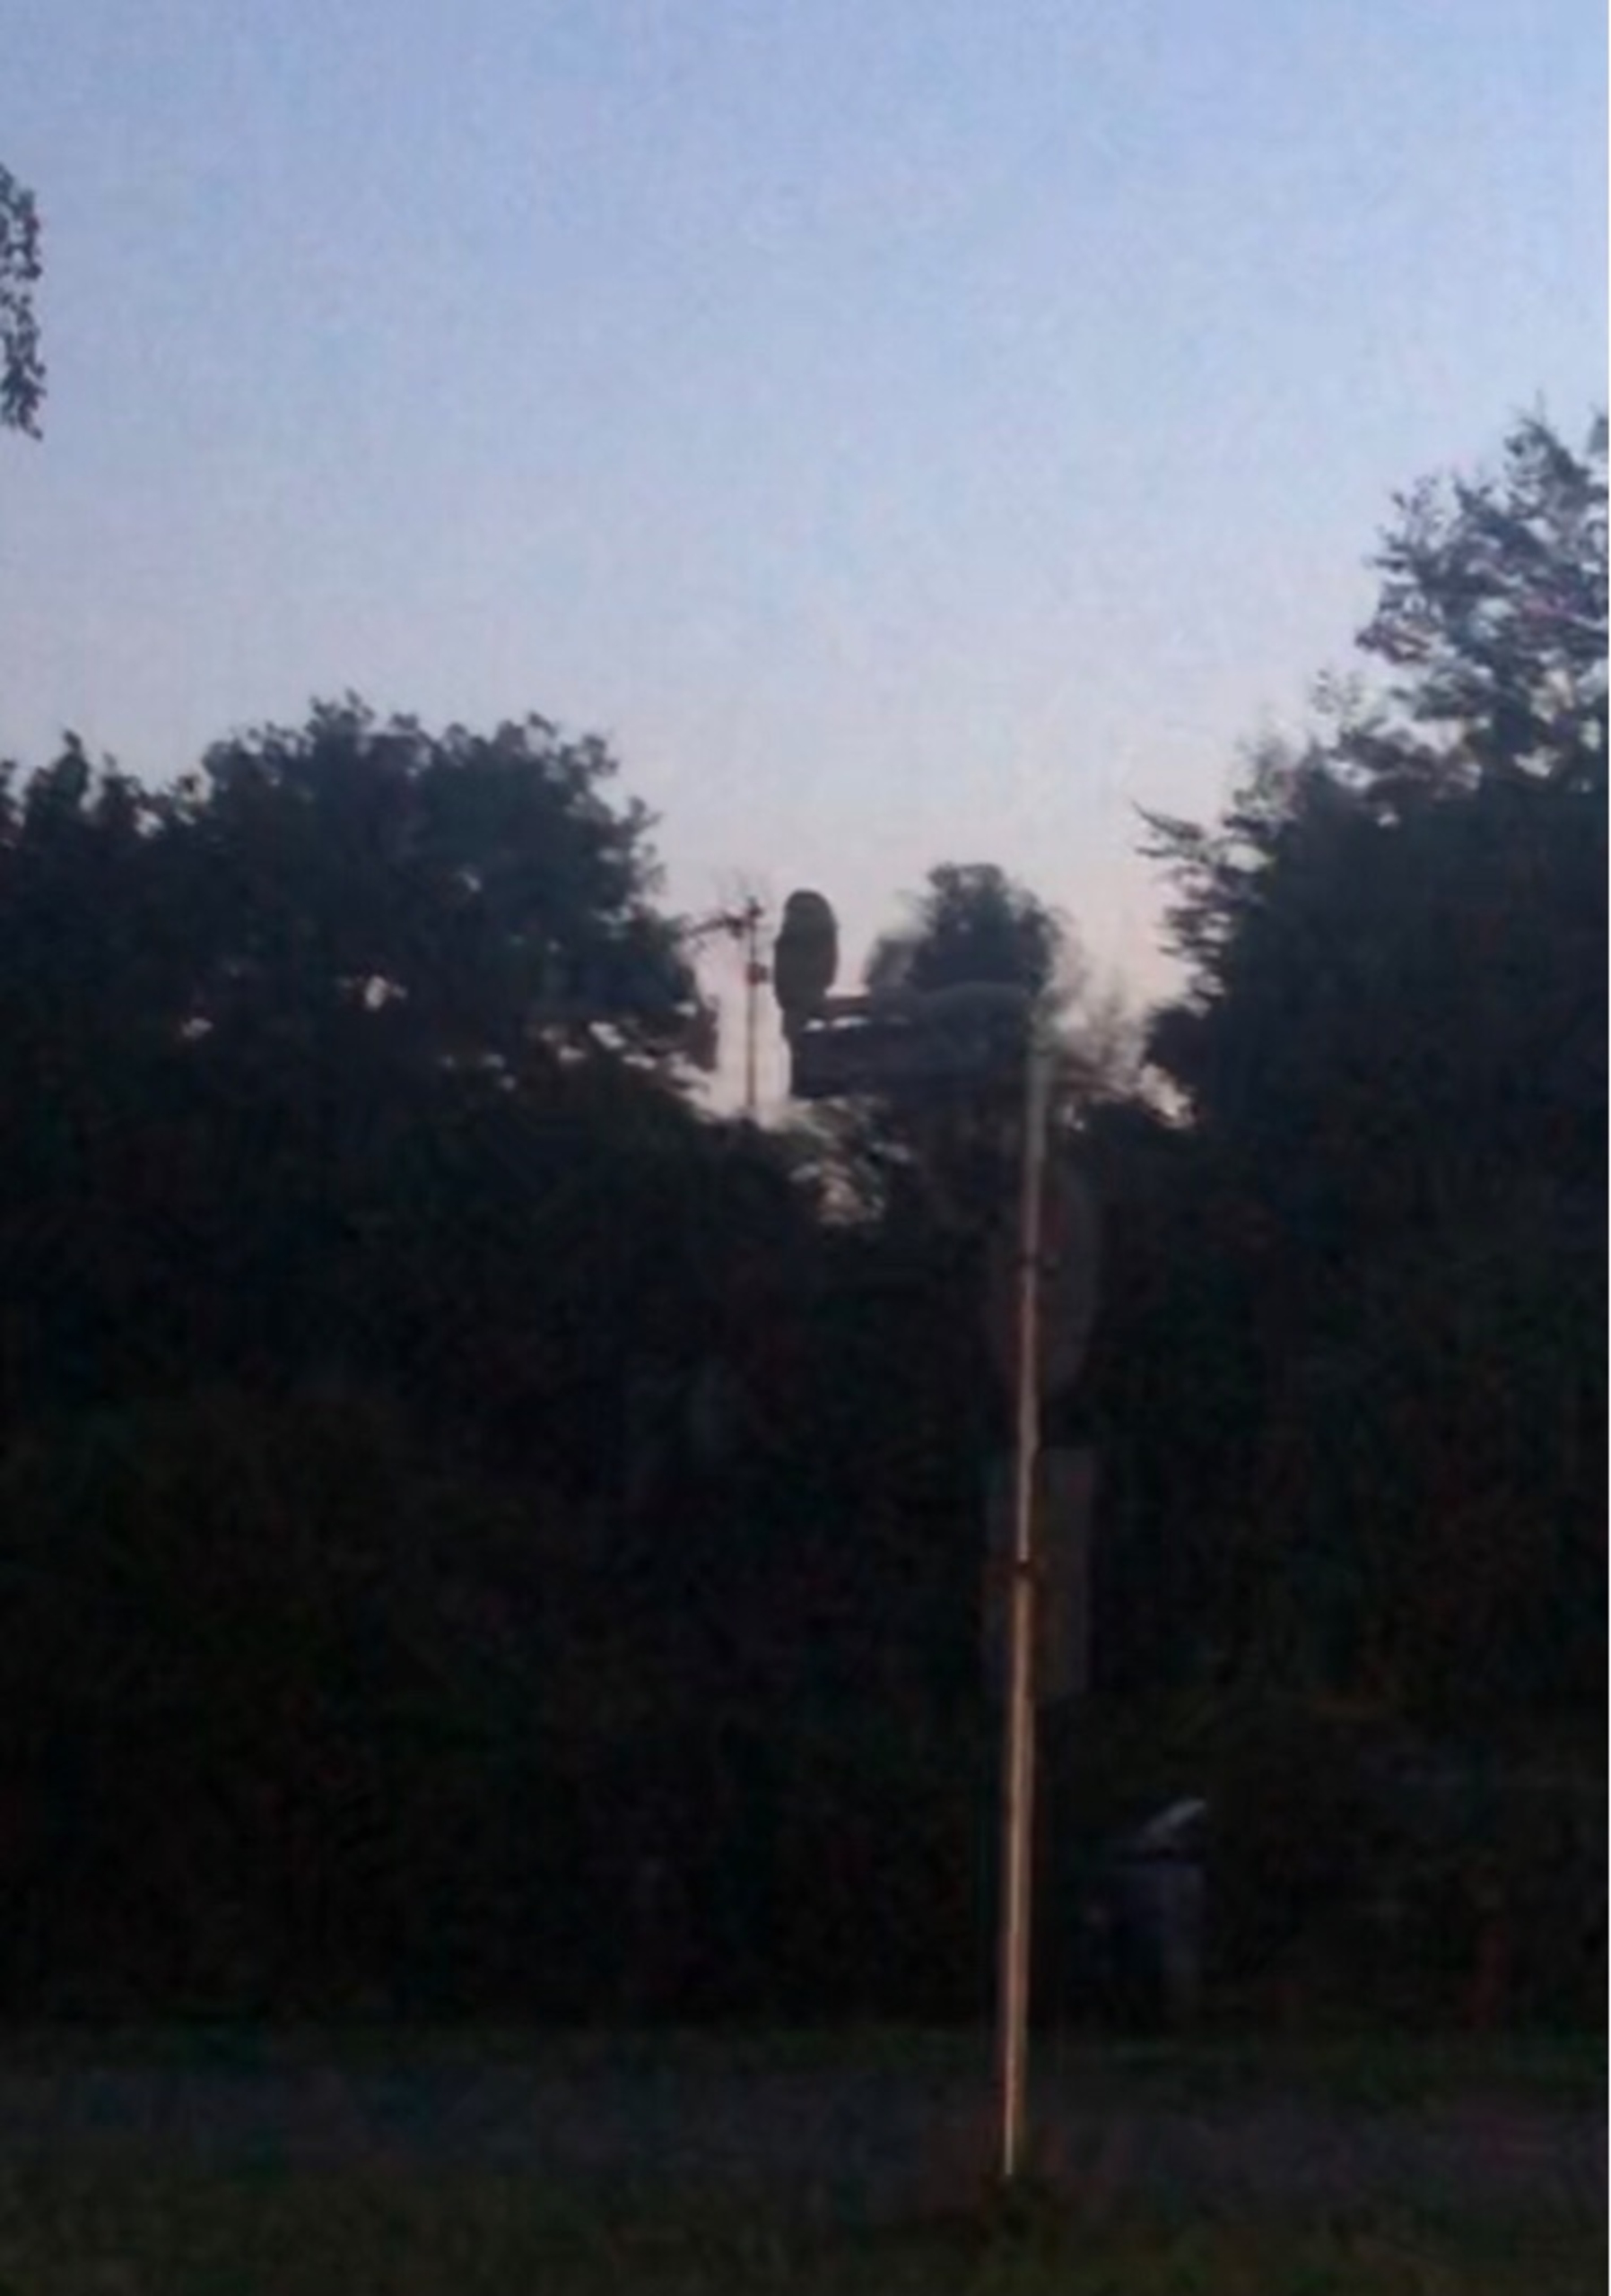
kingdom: Animalia
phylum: Chordata
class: Aves
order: Strigiformes
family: Strigidae
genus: Strix
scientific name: Strix aluco
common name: Natugle
